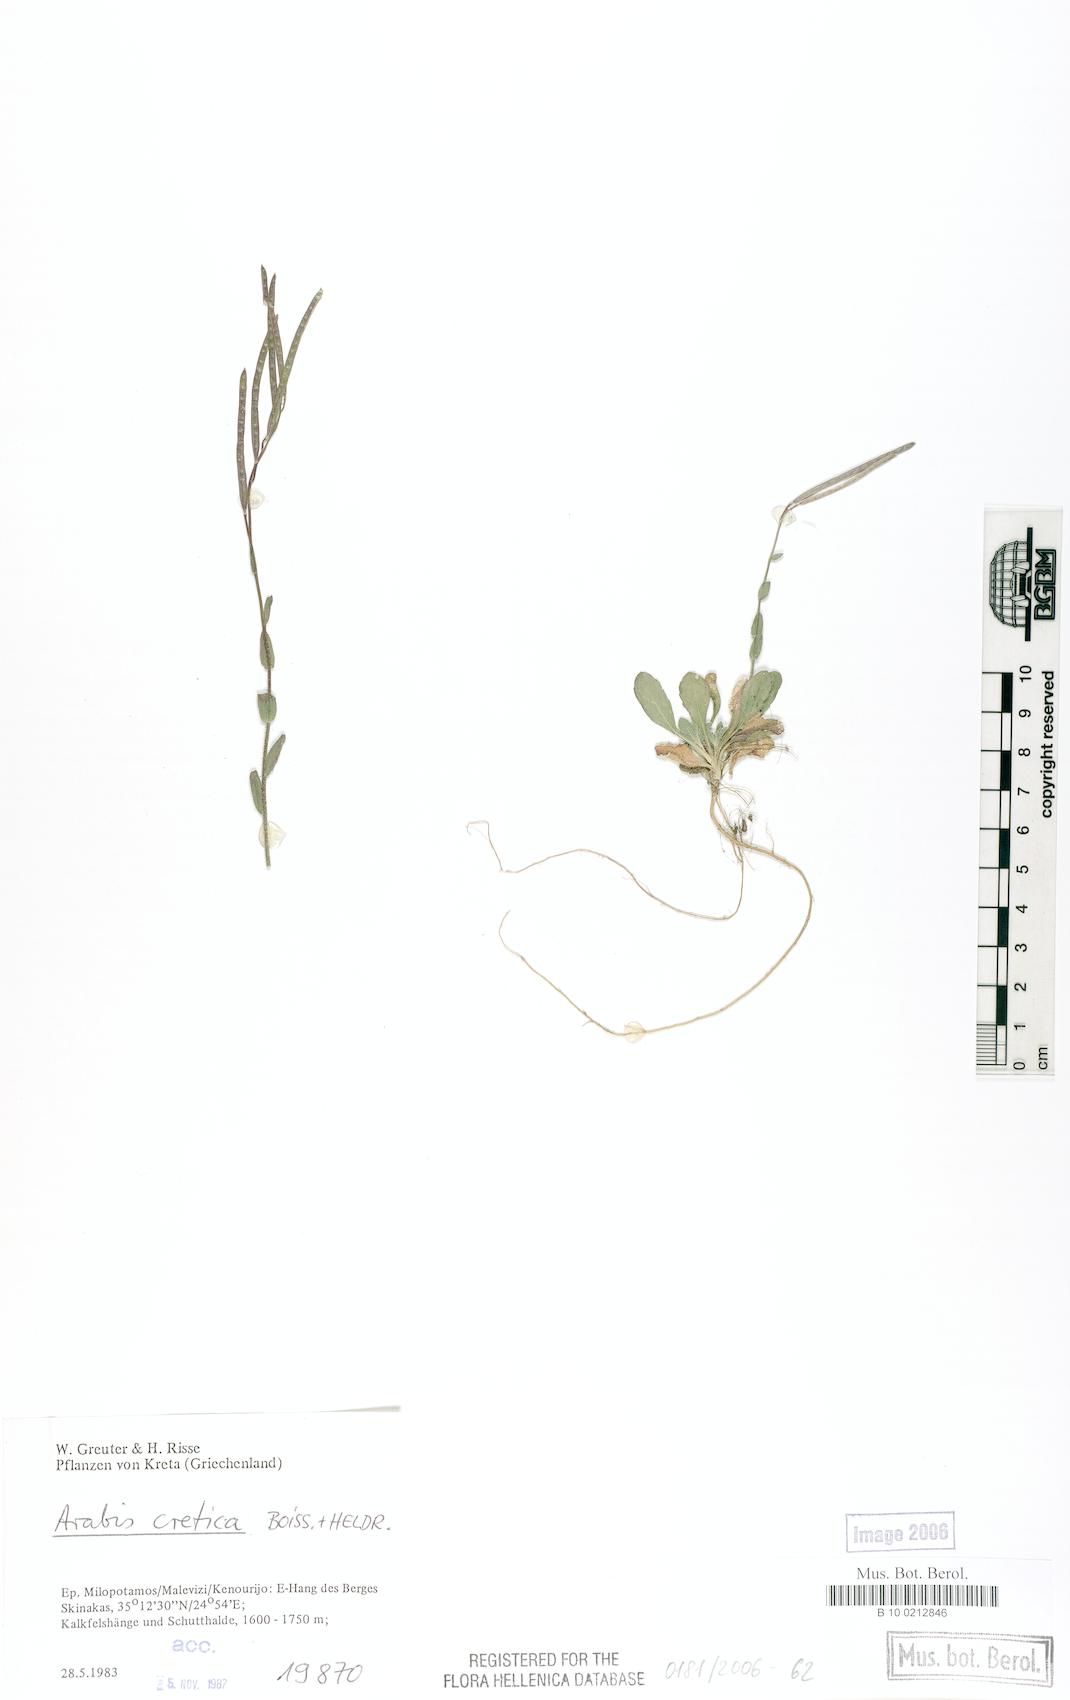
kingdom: Plantae
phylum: Tracheophyta
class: Magnoliopsida
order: Brassicales
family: Brassicaceae
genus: Arabis
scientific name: Arabis cretica
